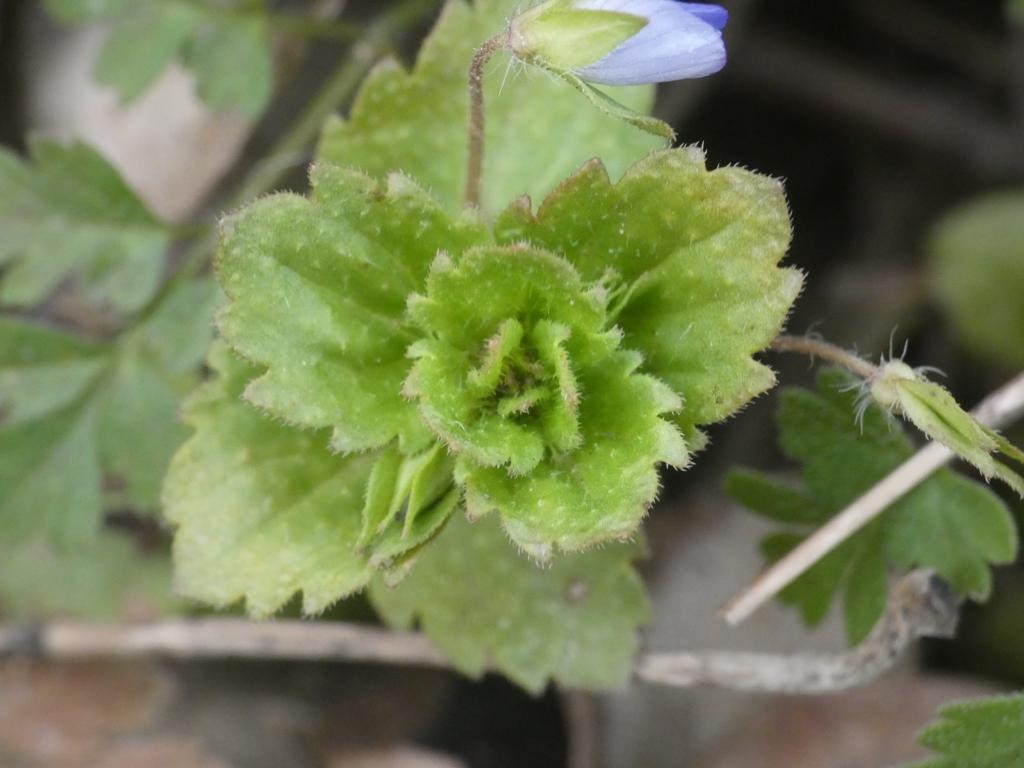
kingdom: Plantae
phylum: Tracheophyta
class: Magnoliopsida
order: Lamiales
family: Plantaginaceae
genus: Veronica
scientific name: Veronica persica
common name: Storkronet ærenpris
